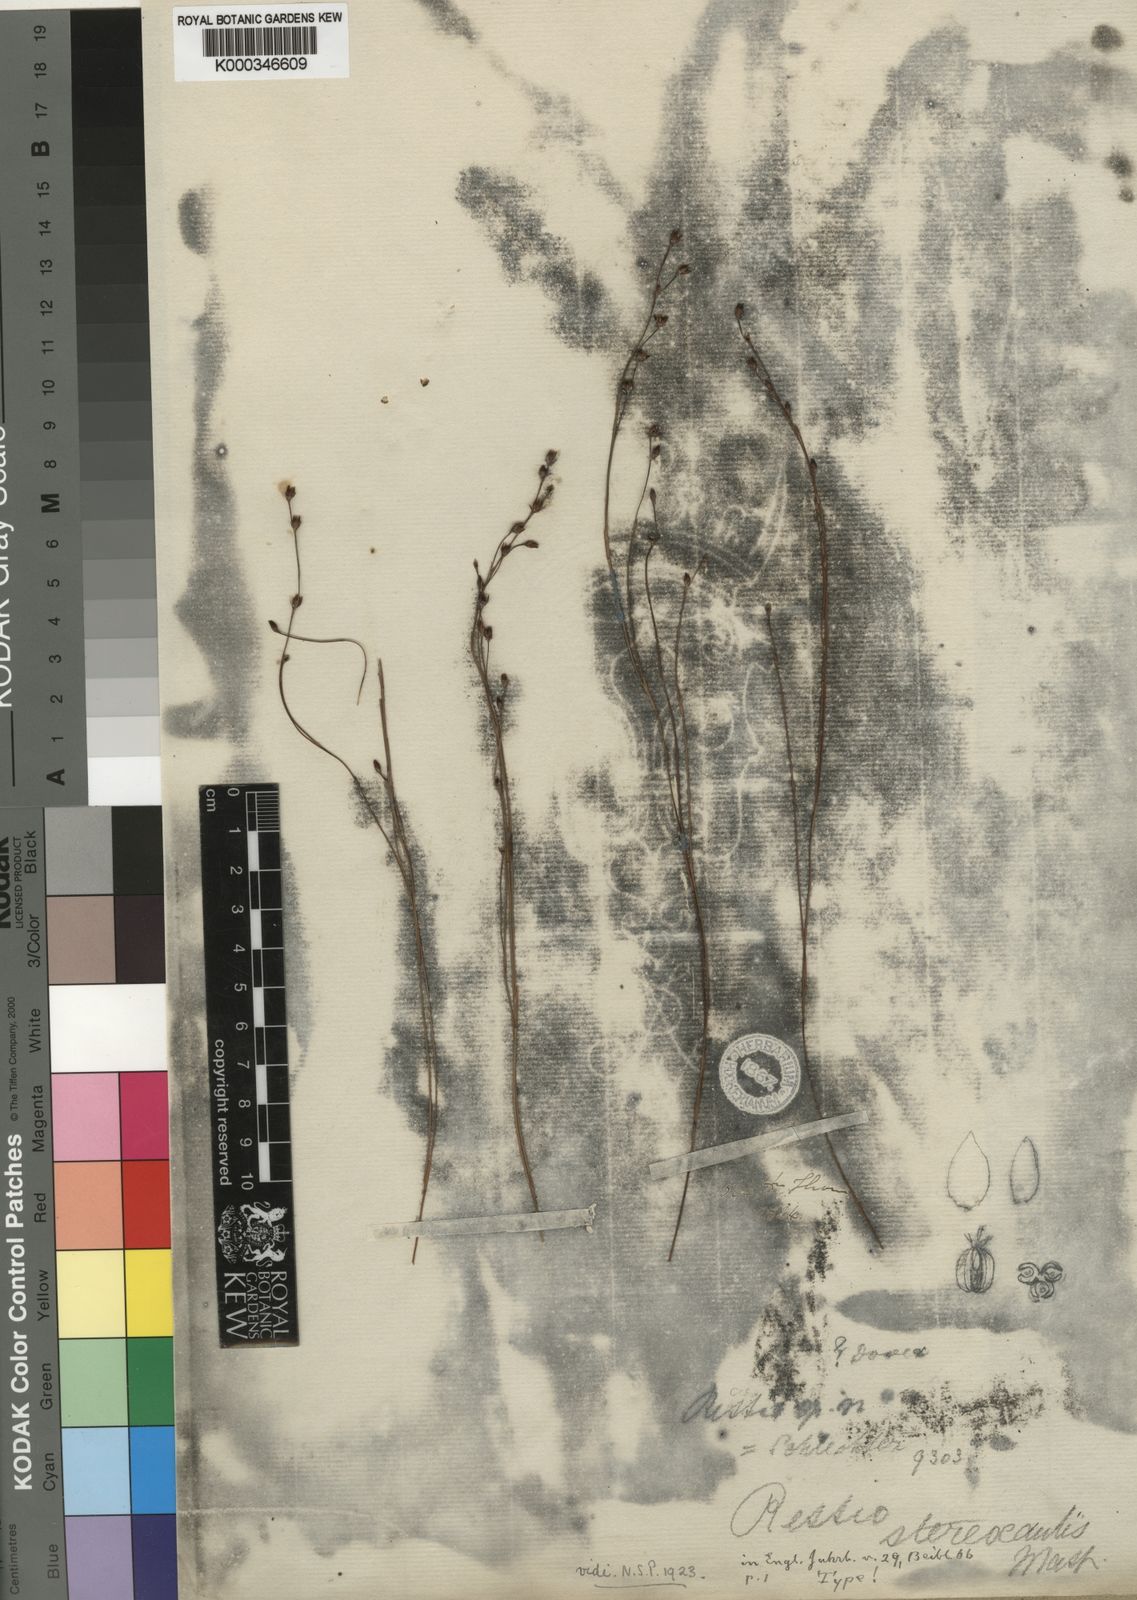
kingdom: Plantae
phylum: Tracheophyta
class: Liliopsida
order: Poales
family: Restionaceae
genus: Restio
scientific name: Restio stereocaulis
